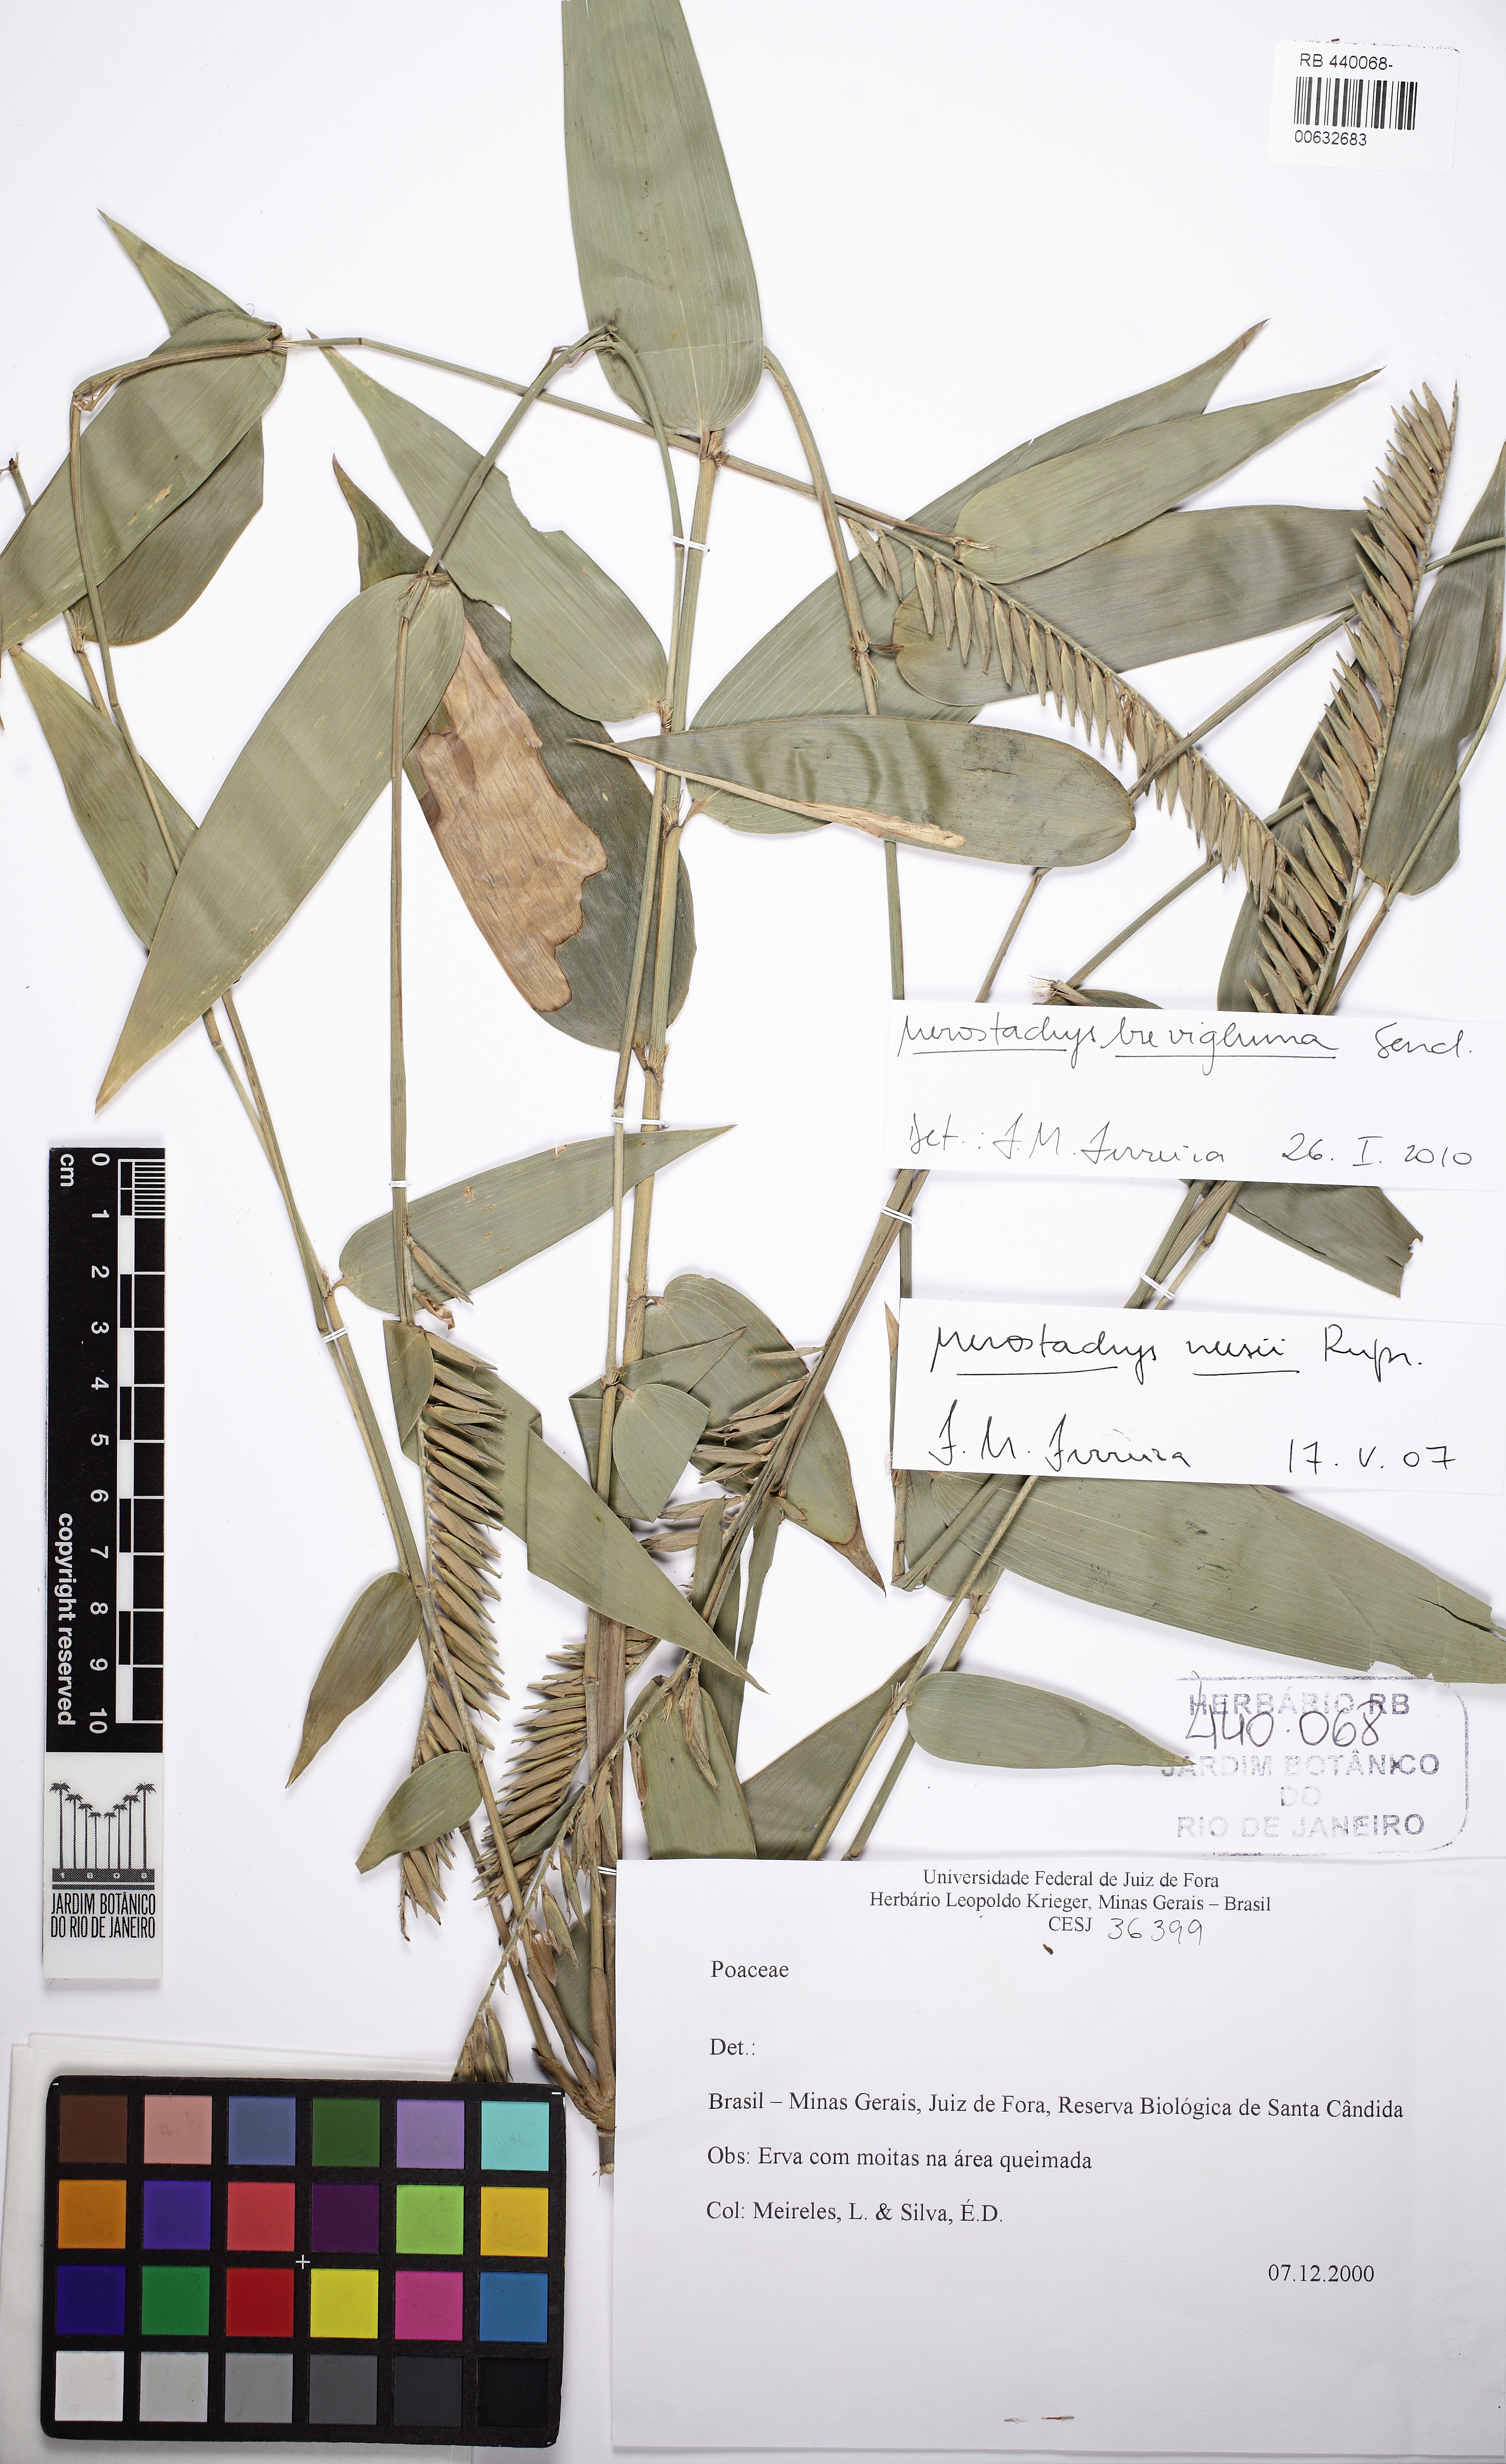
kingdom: Plantae
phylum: Tracheophyta
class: Liliopsida
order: Poales
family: Poaceae
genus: Merostachys
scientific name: Merostachys fistulosa
